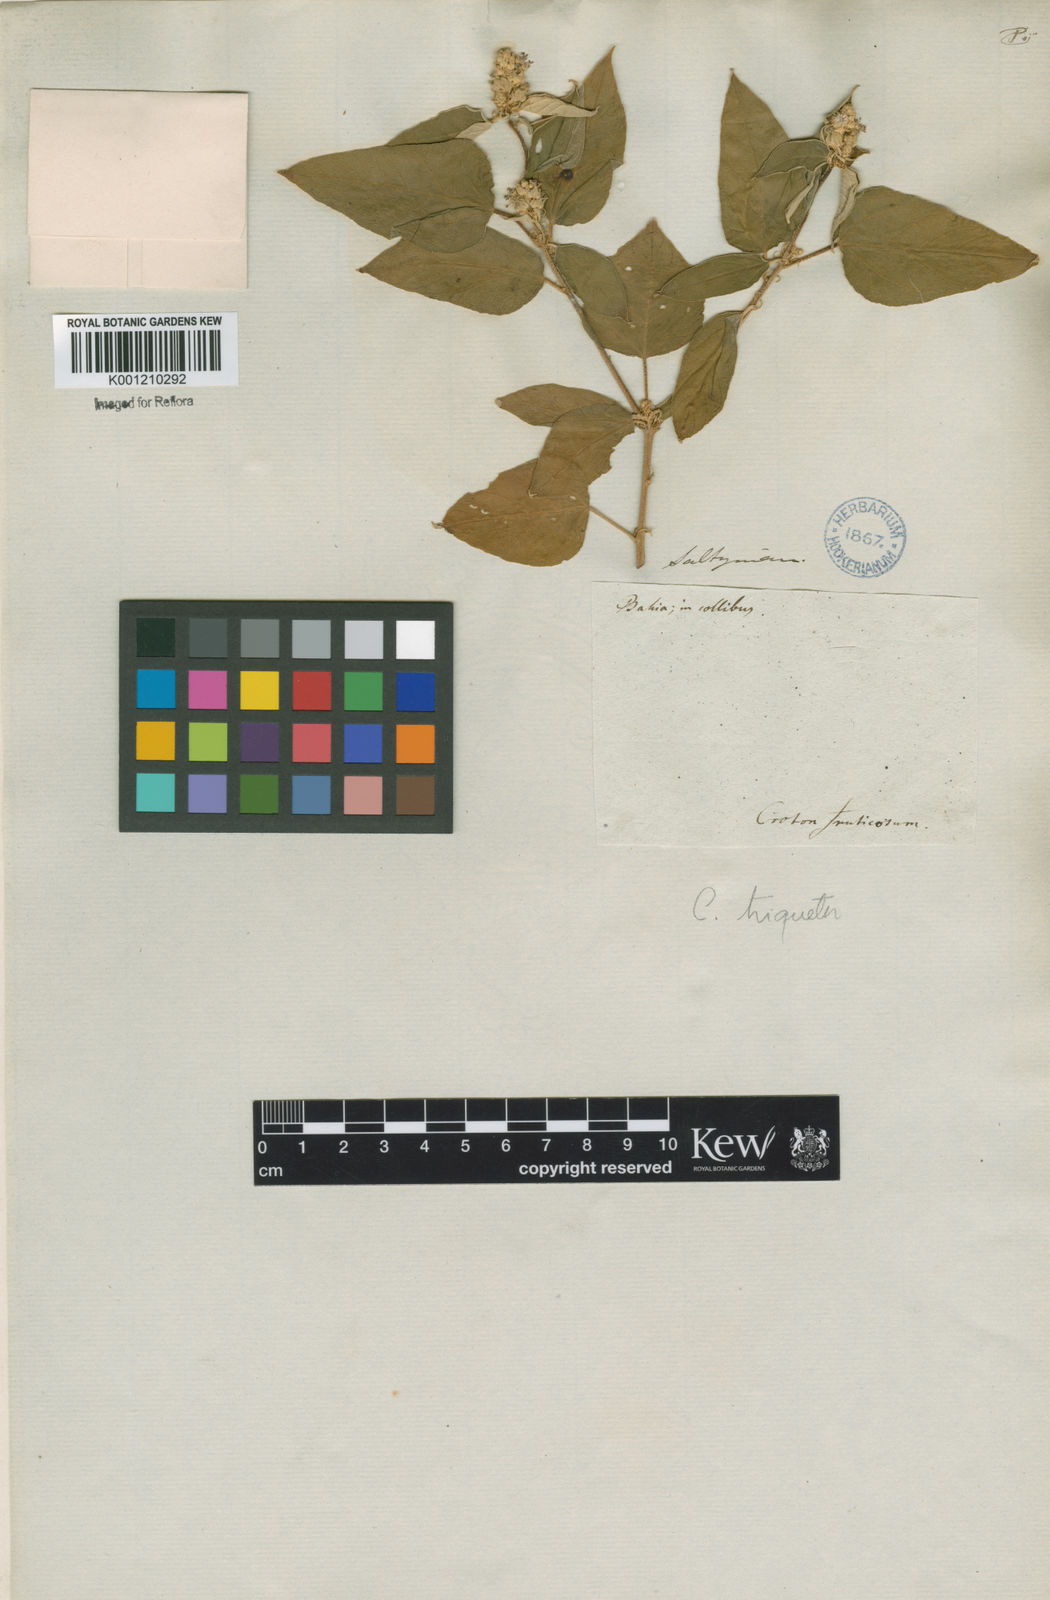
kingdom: Plantae
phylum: Tracheophyta
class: Magnoliopsida
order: Malpighiales
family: Euphorbiaceae
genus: Croton
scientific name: Croton triqueter
